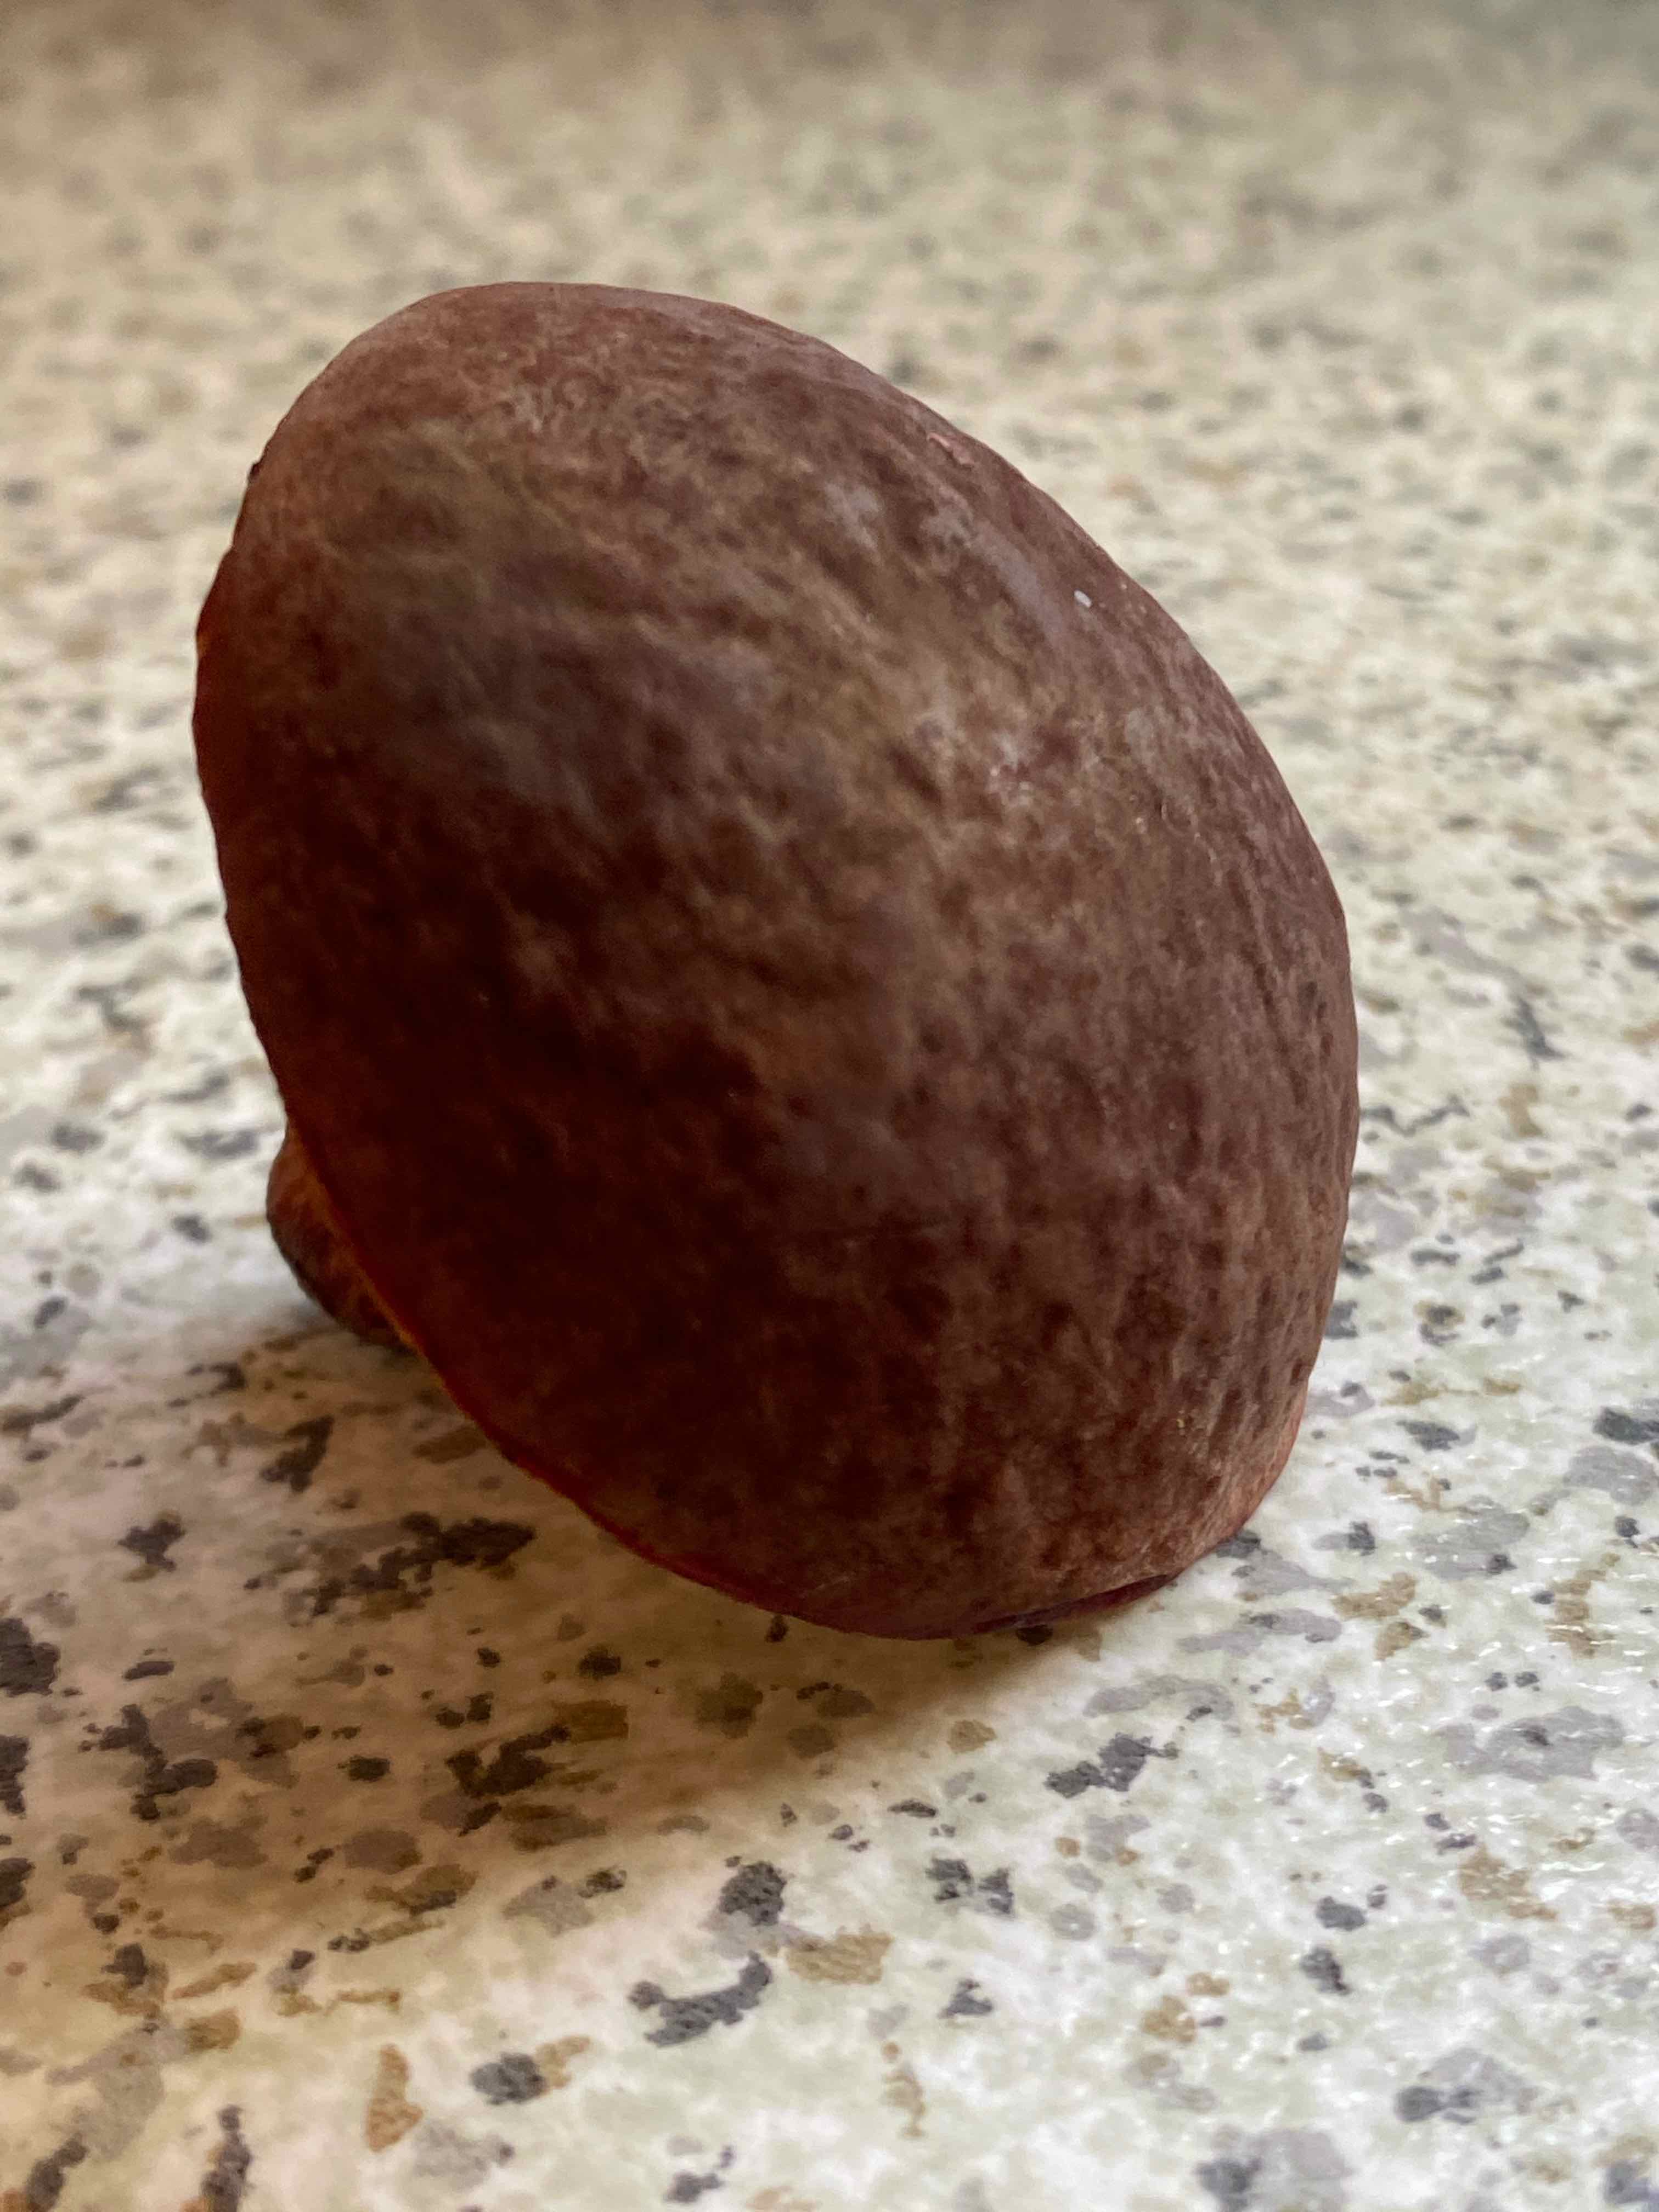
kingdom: Fungi
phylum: Basidiomycota
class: Agaricomycetes
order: Boletales
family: Boletaceae
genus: Xerocomellus
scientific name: Xerocomellus pruinatus
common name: dugget rørhat
